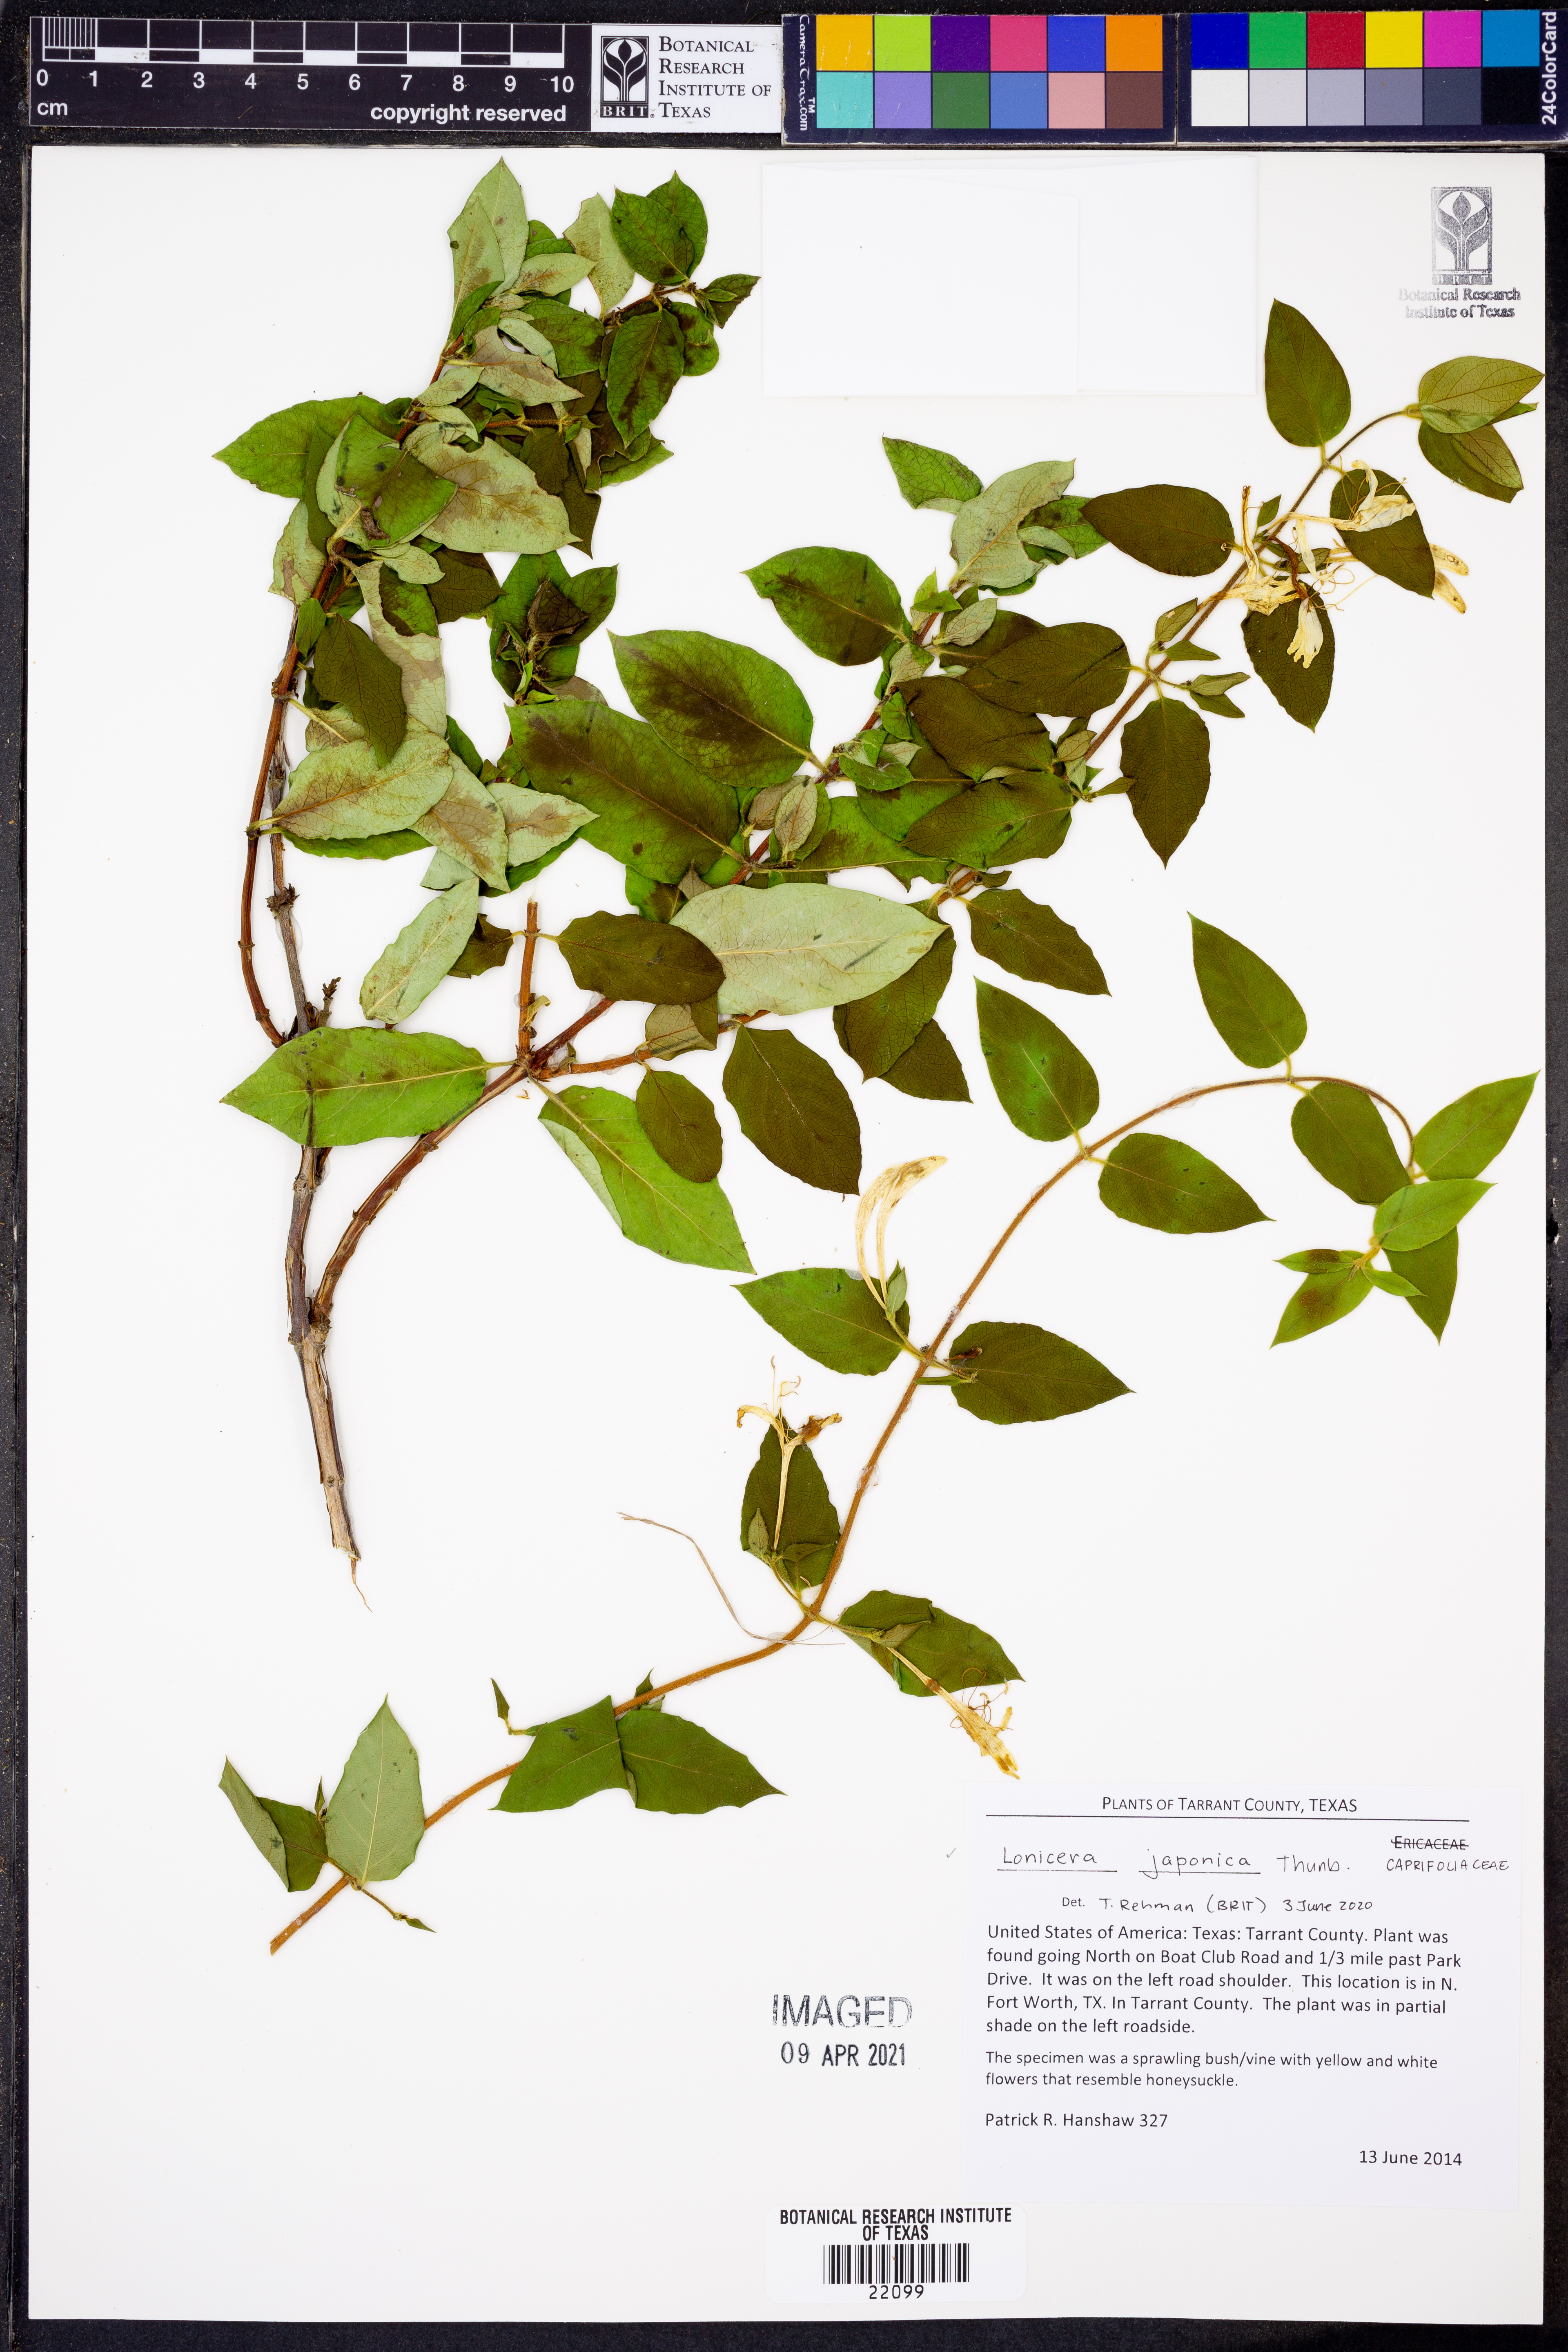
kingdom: Plantae
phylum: Tracheophyta
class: Magnoliopsida
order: Dipsacales
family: Caprifoliaceae
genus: Lonicera
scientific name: Lonicera japonica
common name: Japanese honeysuckle
